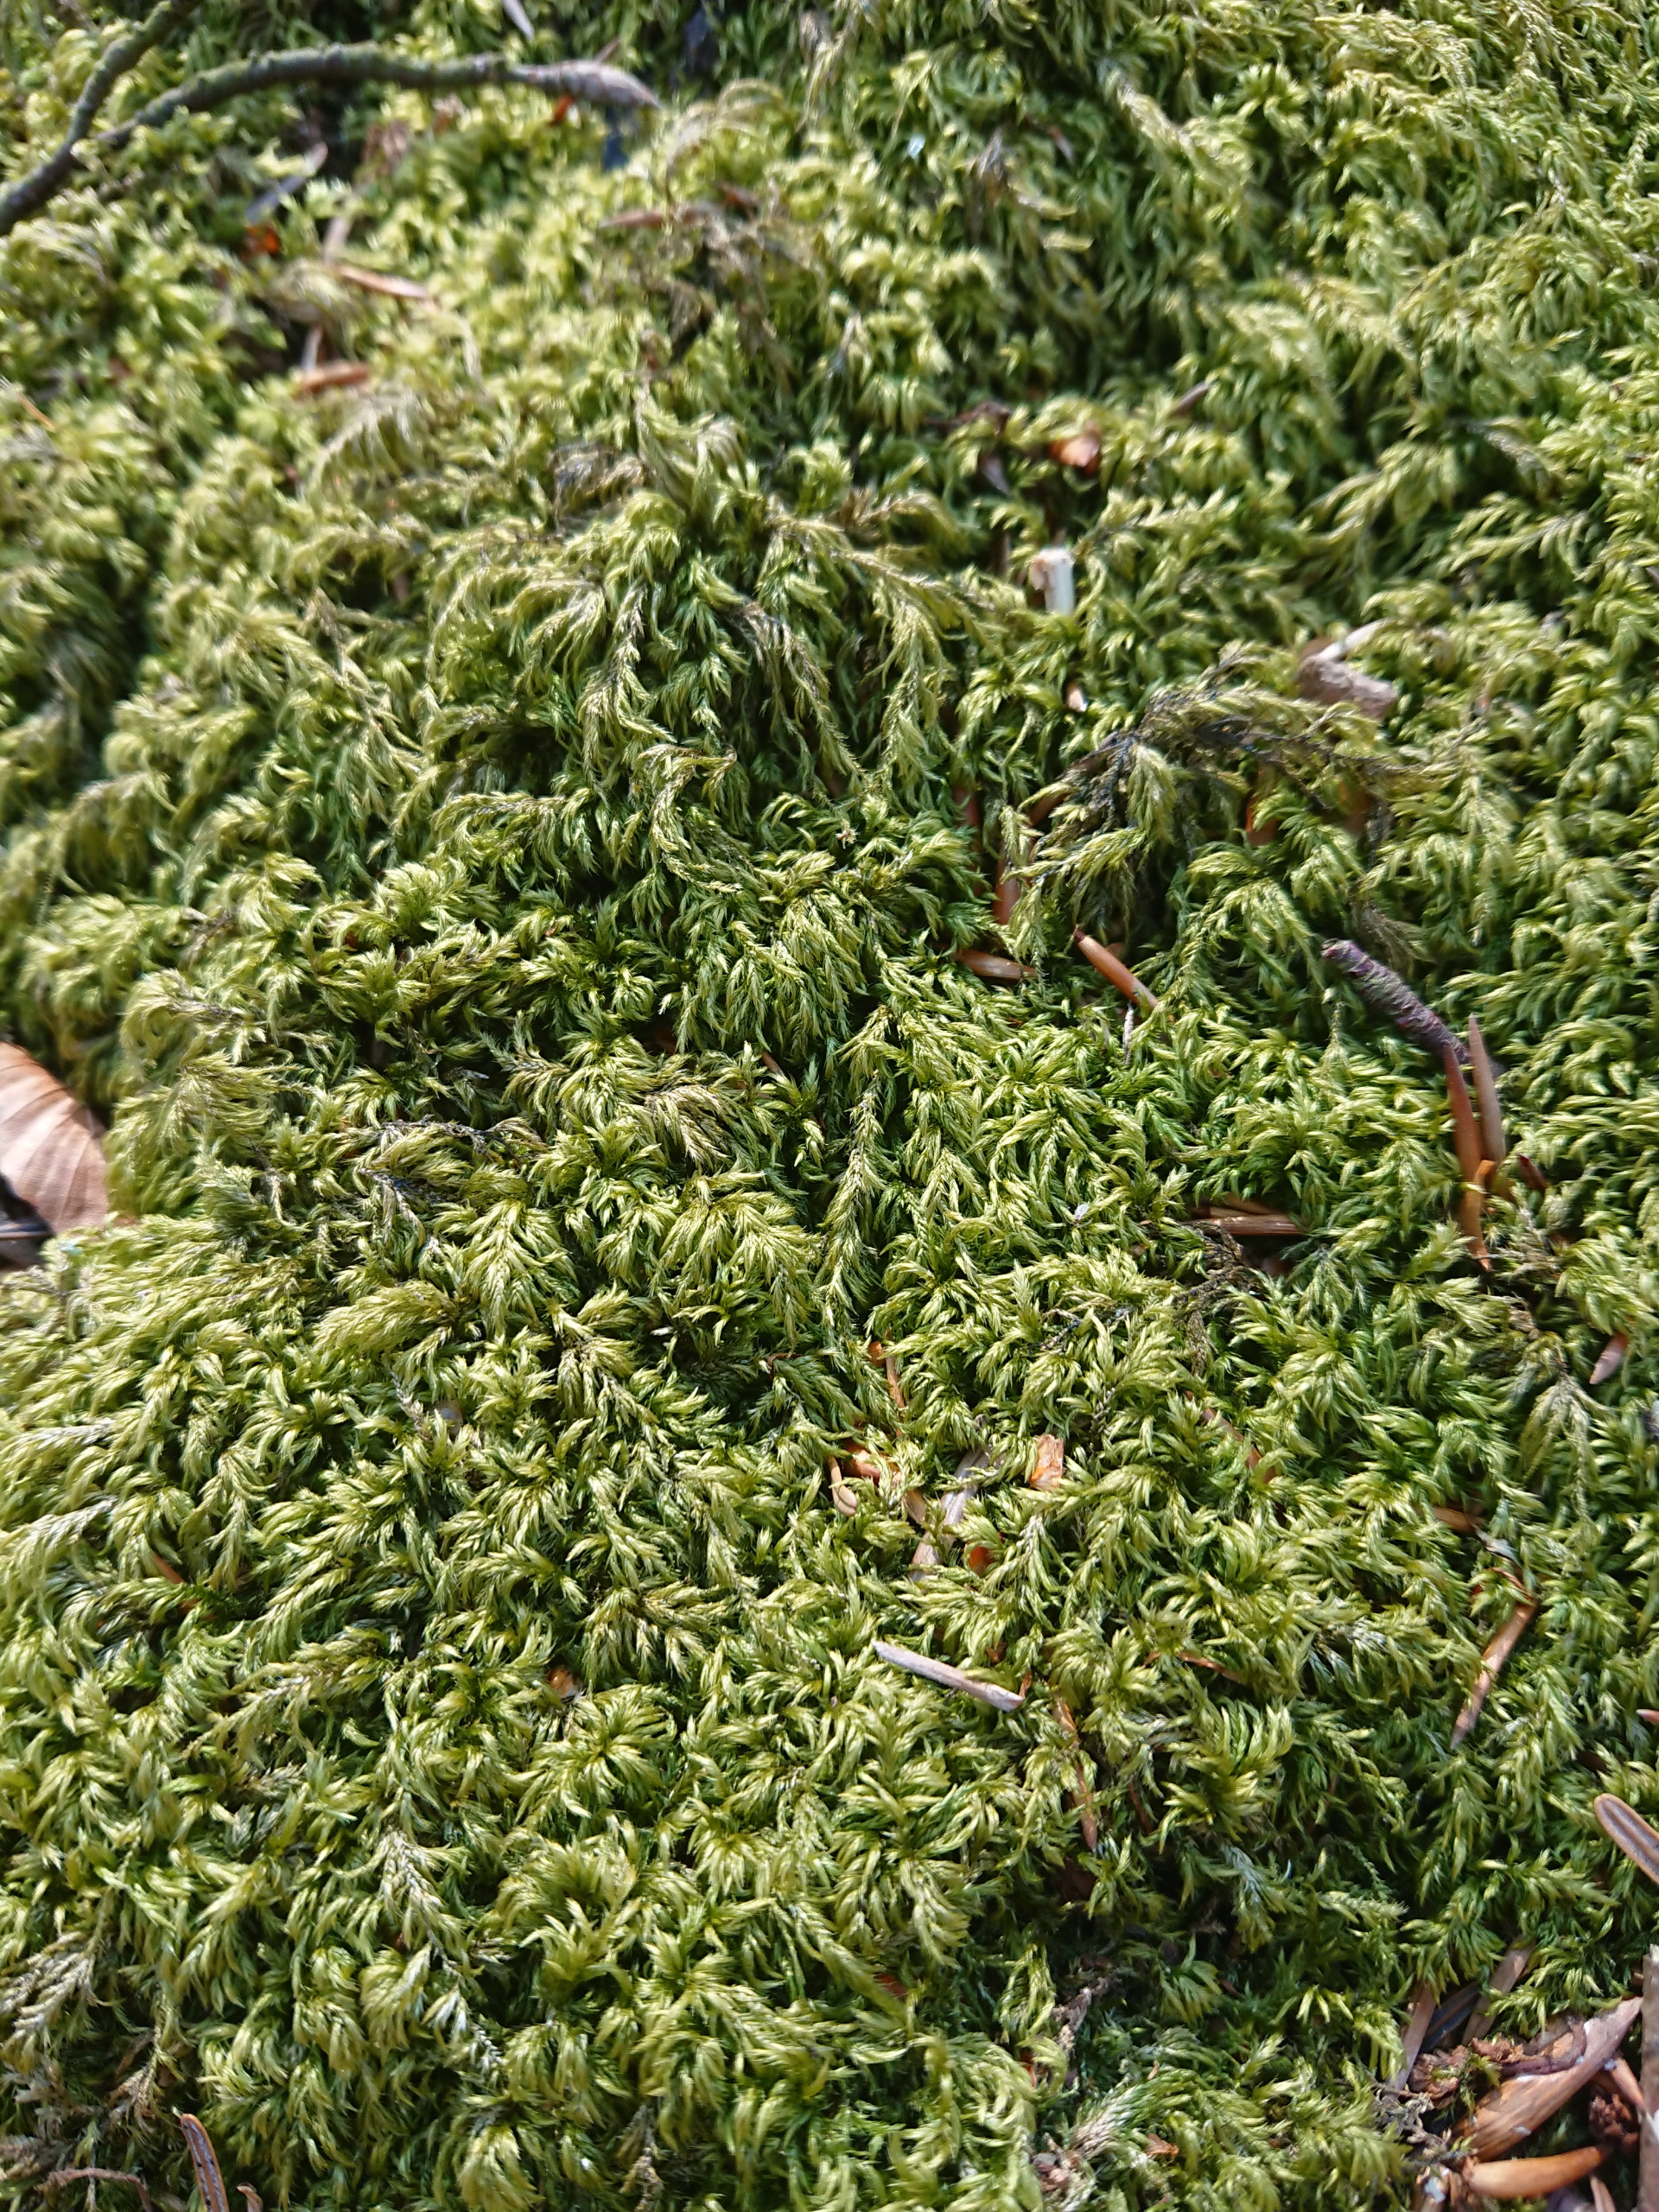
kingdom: Plantae
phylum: Bryophyta
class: Bryopsida
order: Hypnales
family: Lembophyllaceae
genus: Pseudisothecium
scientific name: Pseudisothecium myosuroides
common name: Slank stammemos
